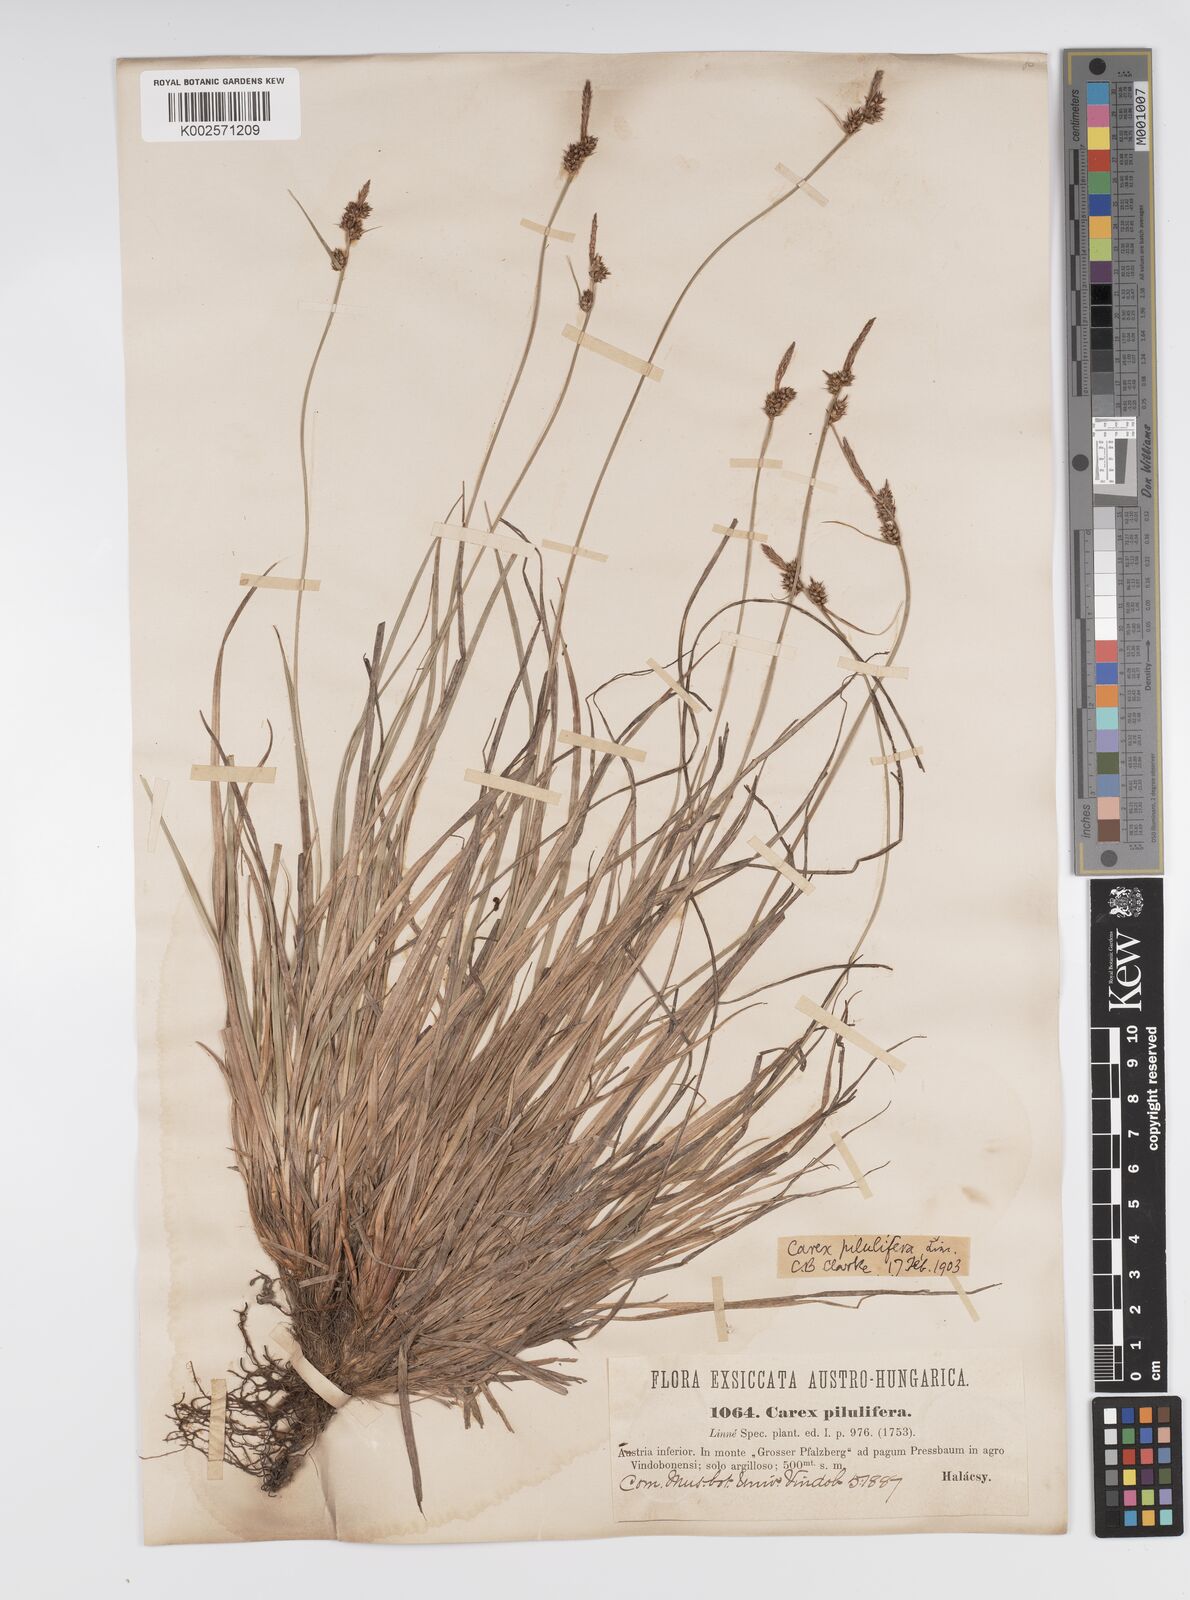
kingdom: Plantae
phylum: Tracheophyta
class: Liliopsida
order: Poales
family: Cyperaceae
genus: Carex
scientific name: Carex pilulifera
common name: Pill sedge
